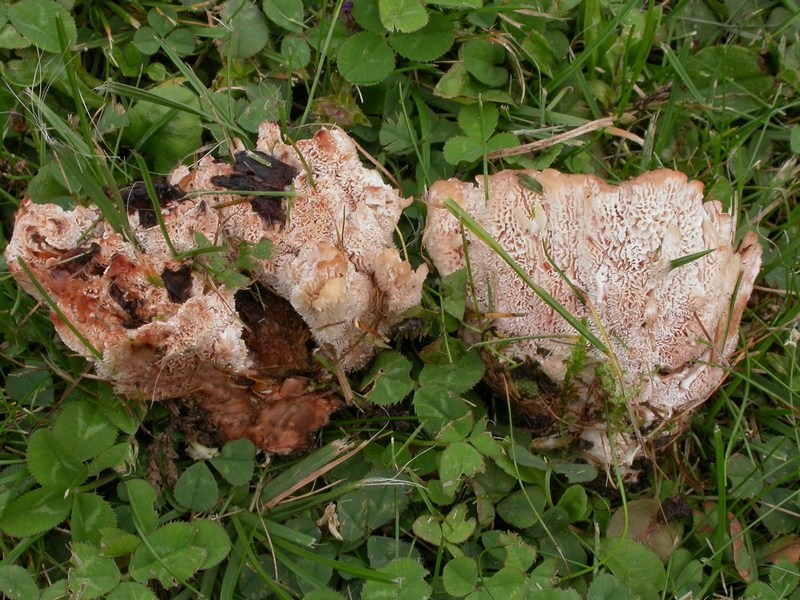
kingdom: Fungi
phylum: Basidiomycota
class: Agaricomycetes
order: Polyporales
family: Podoscyphaceae
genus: Abortiporus
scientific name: Abortiporus biennis
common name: rødmende pjalteporesvamp
